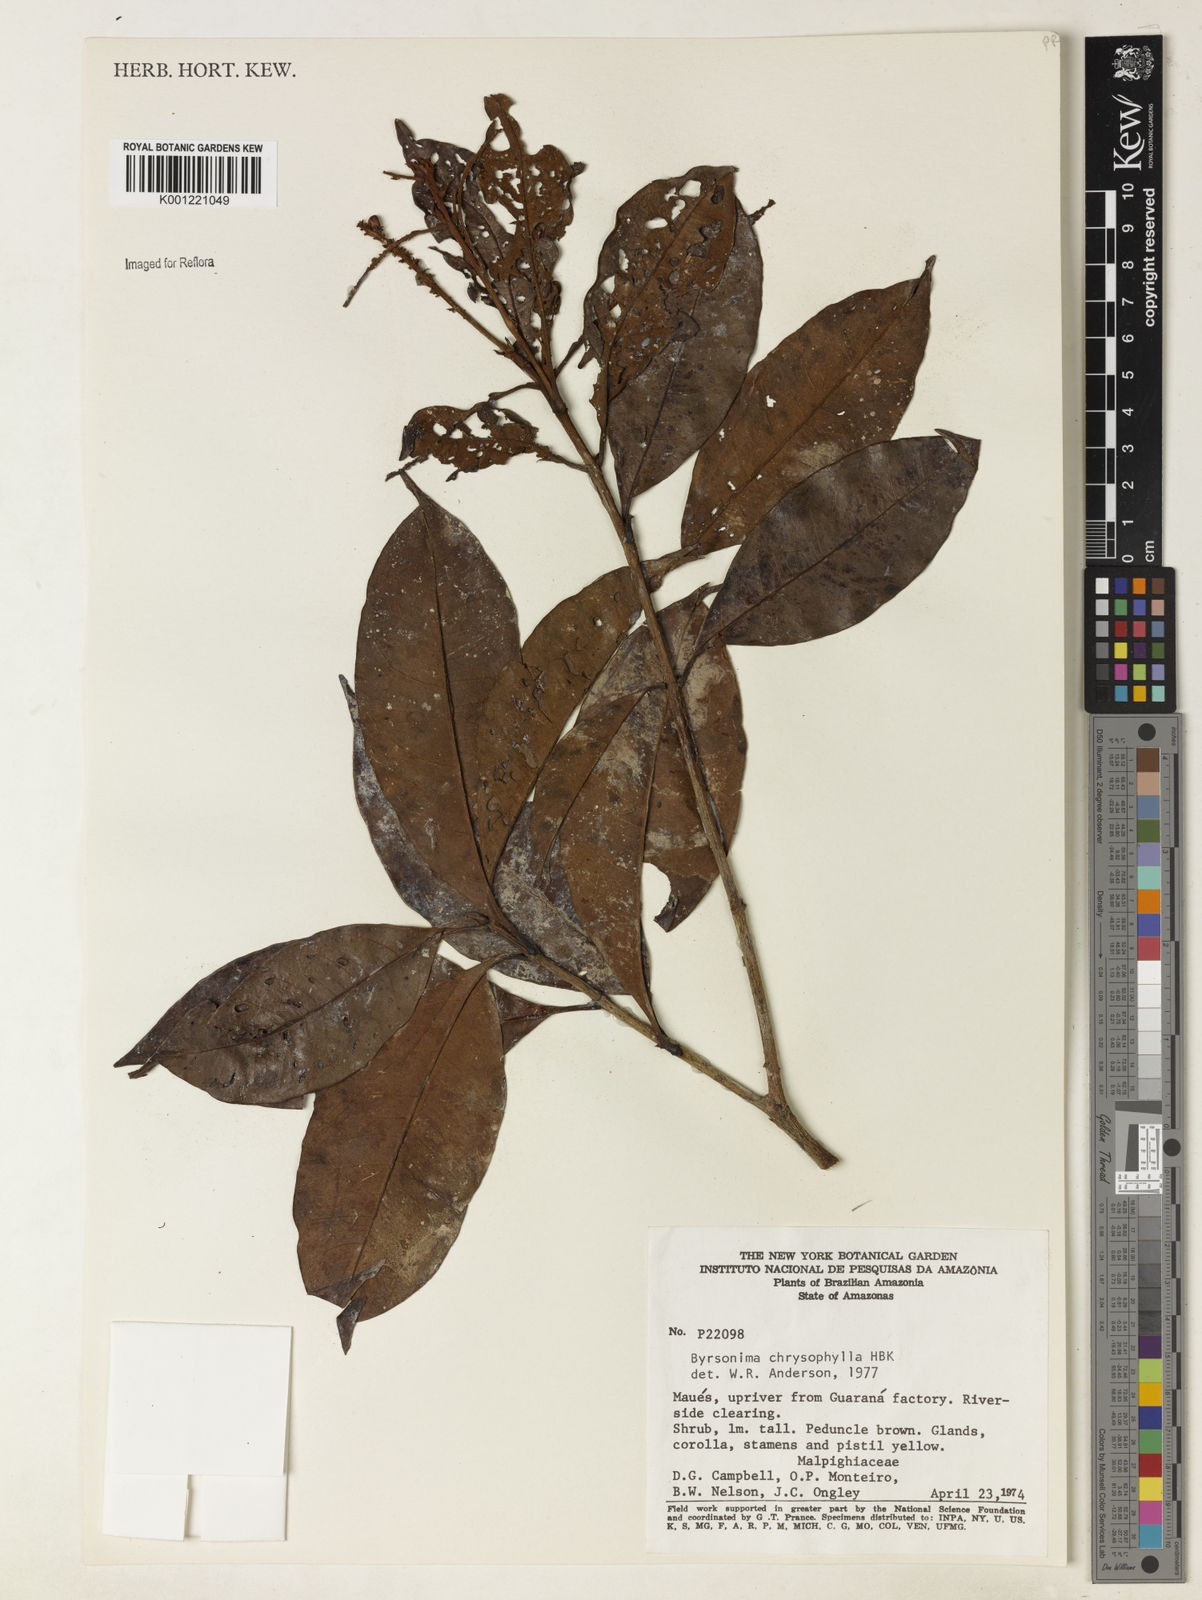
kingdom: Plantae
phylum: Tracheophyta
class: Magnoliopsida
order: Malpighiales
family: Malpighiaceae
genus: Byrsonima
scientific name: Byrsonima chrysophylla
